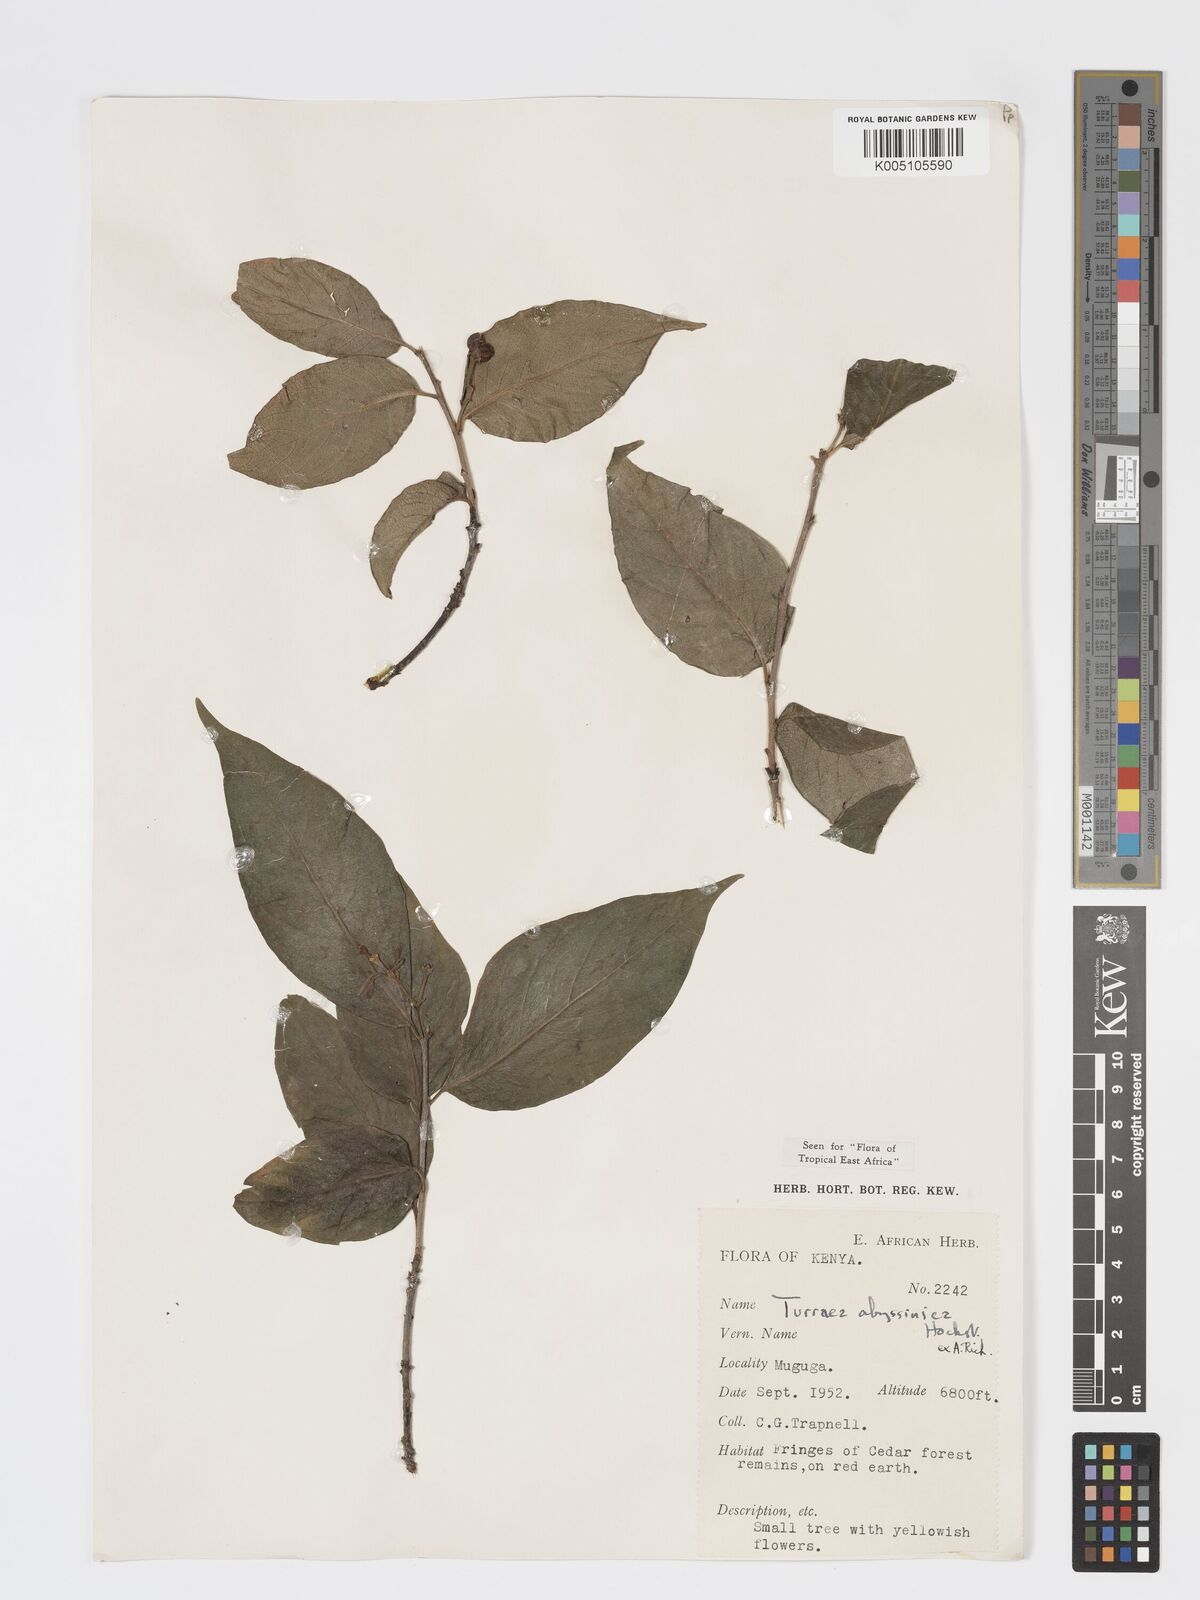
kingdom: Plantae
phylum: Tracheophyta
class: Magnoliopsida
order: Sapindales
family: Meliaceae
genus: Turraea
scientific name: Turraea abyssinica
